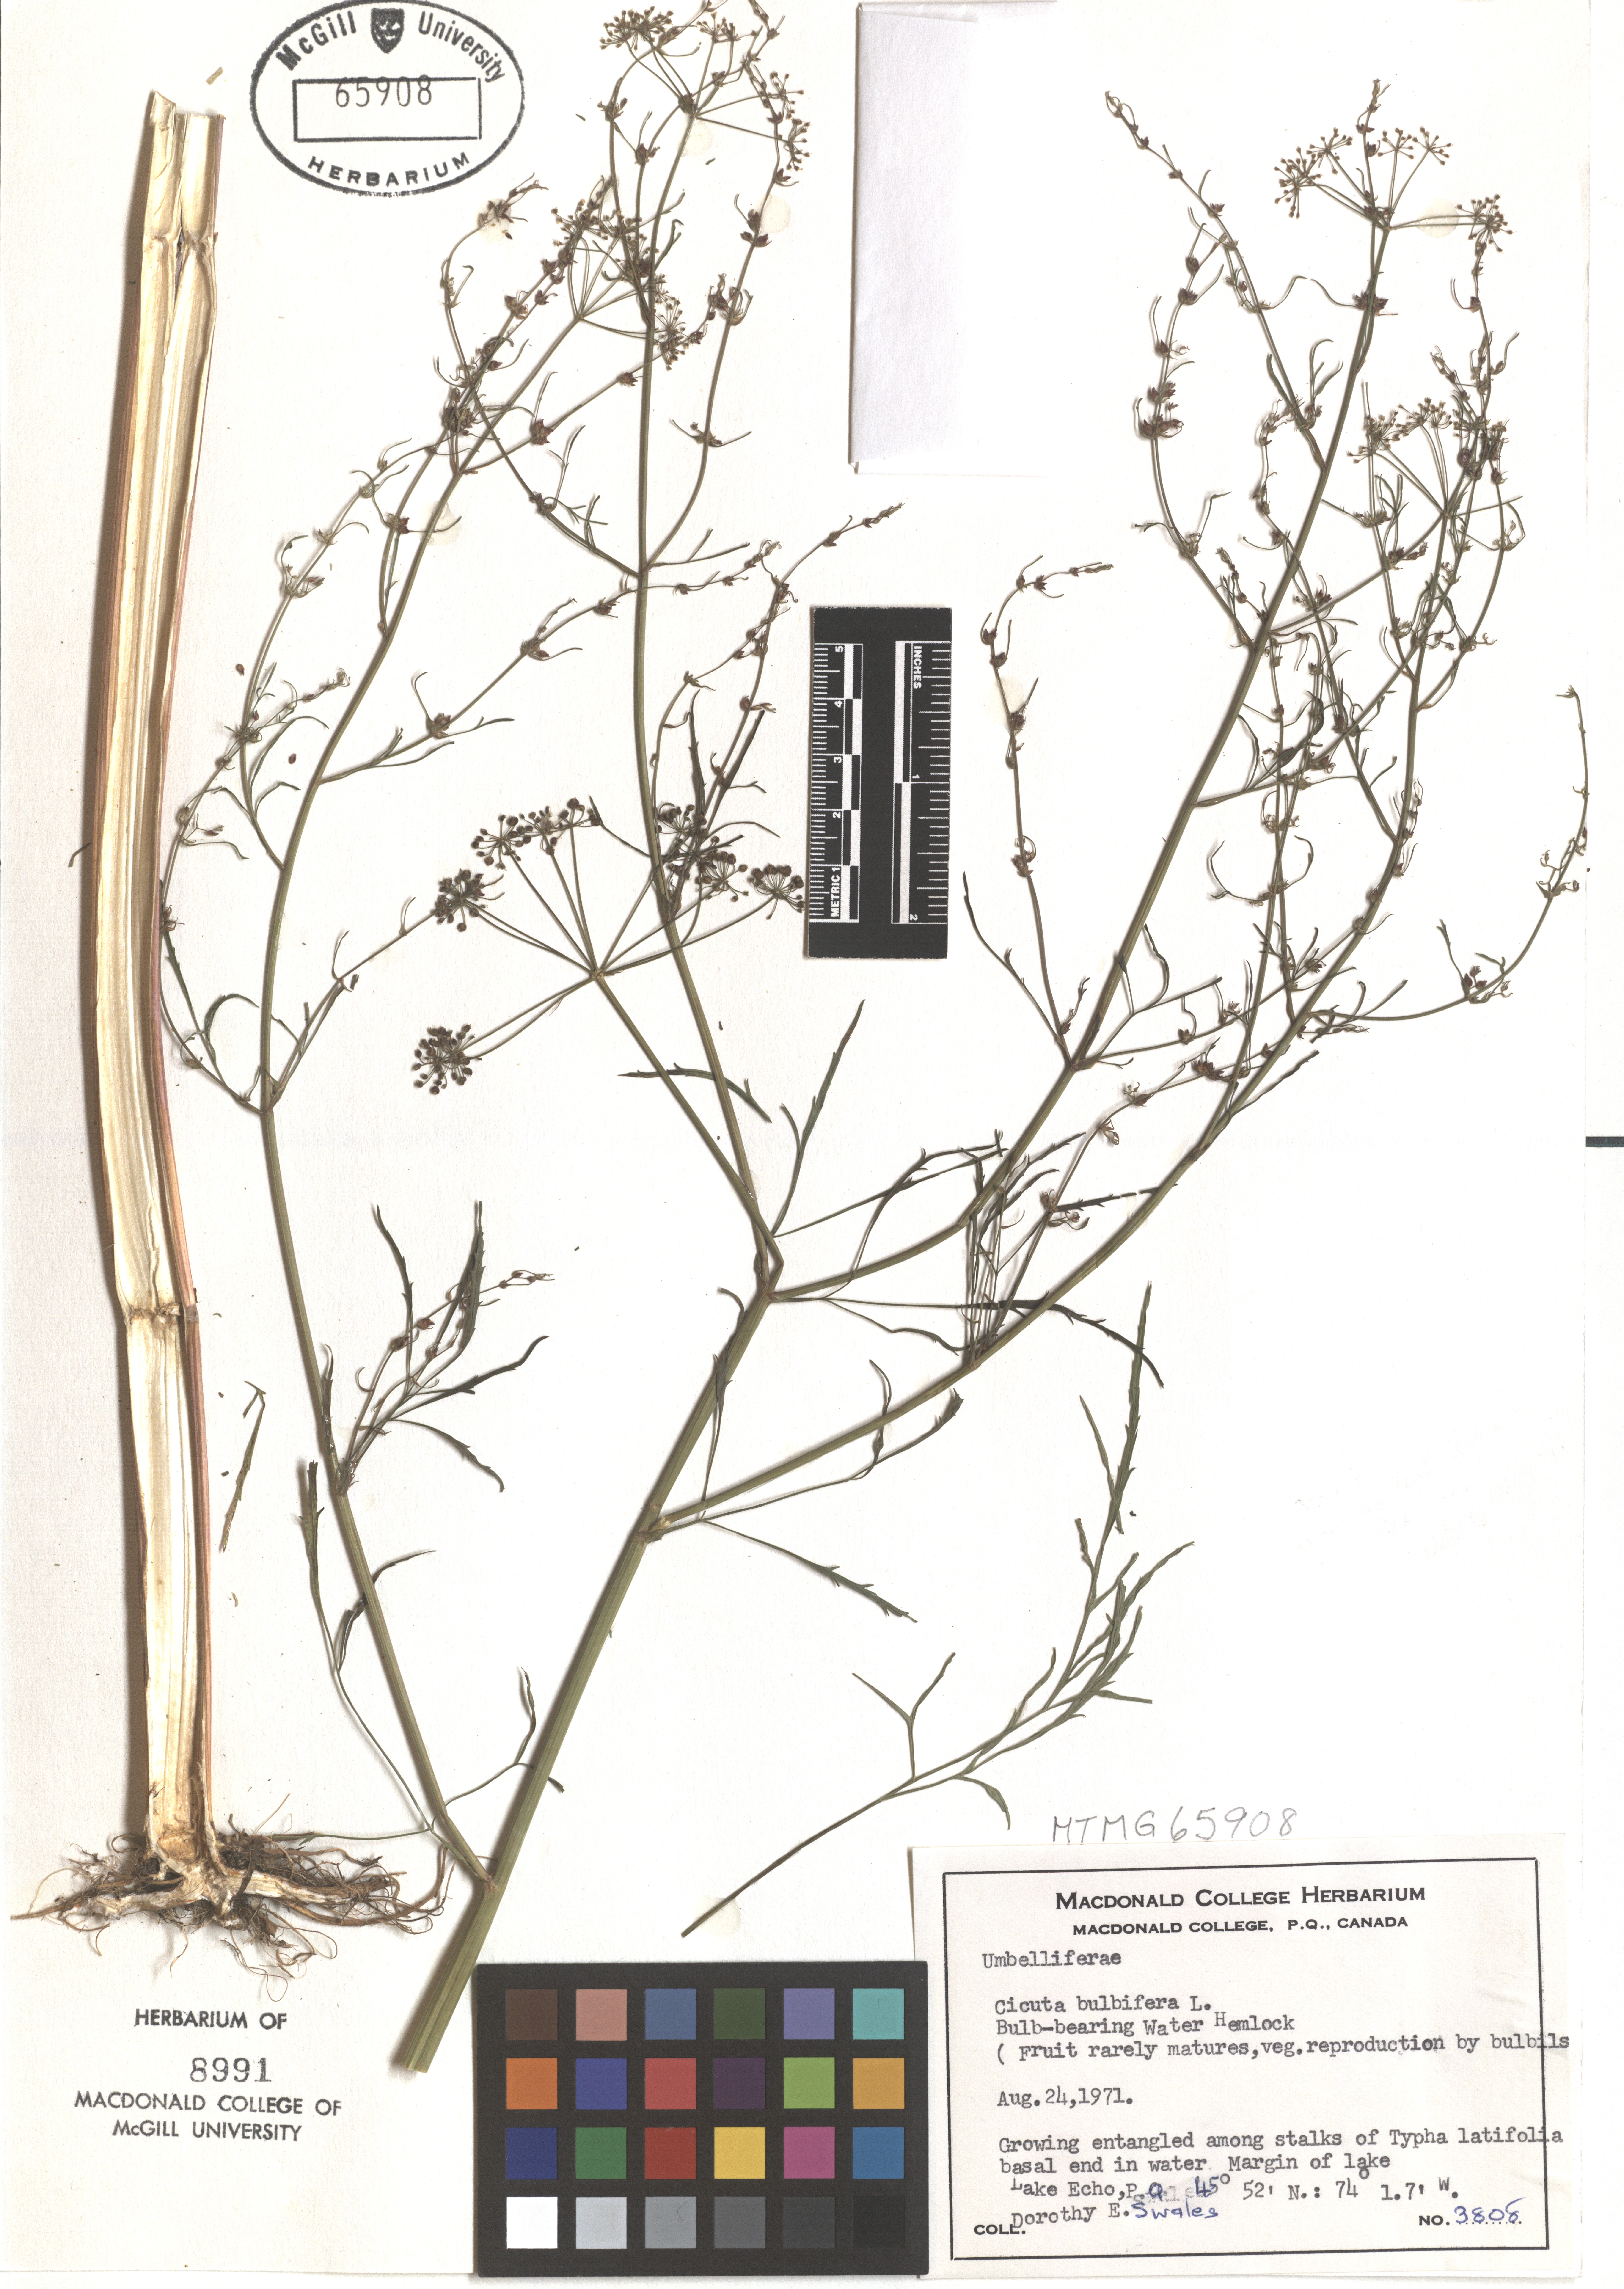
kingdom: Plantae
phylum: Tracheophyta
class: Magnoliopsida
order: Apiales
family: Apiaceae
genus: Cicuta
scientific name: Cicuta bulbifera
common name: Bulb-bearing water-hemlock
